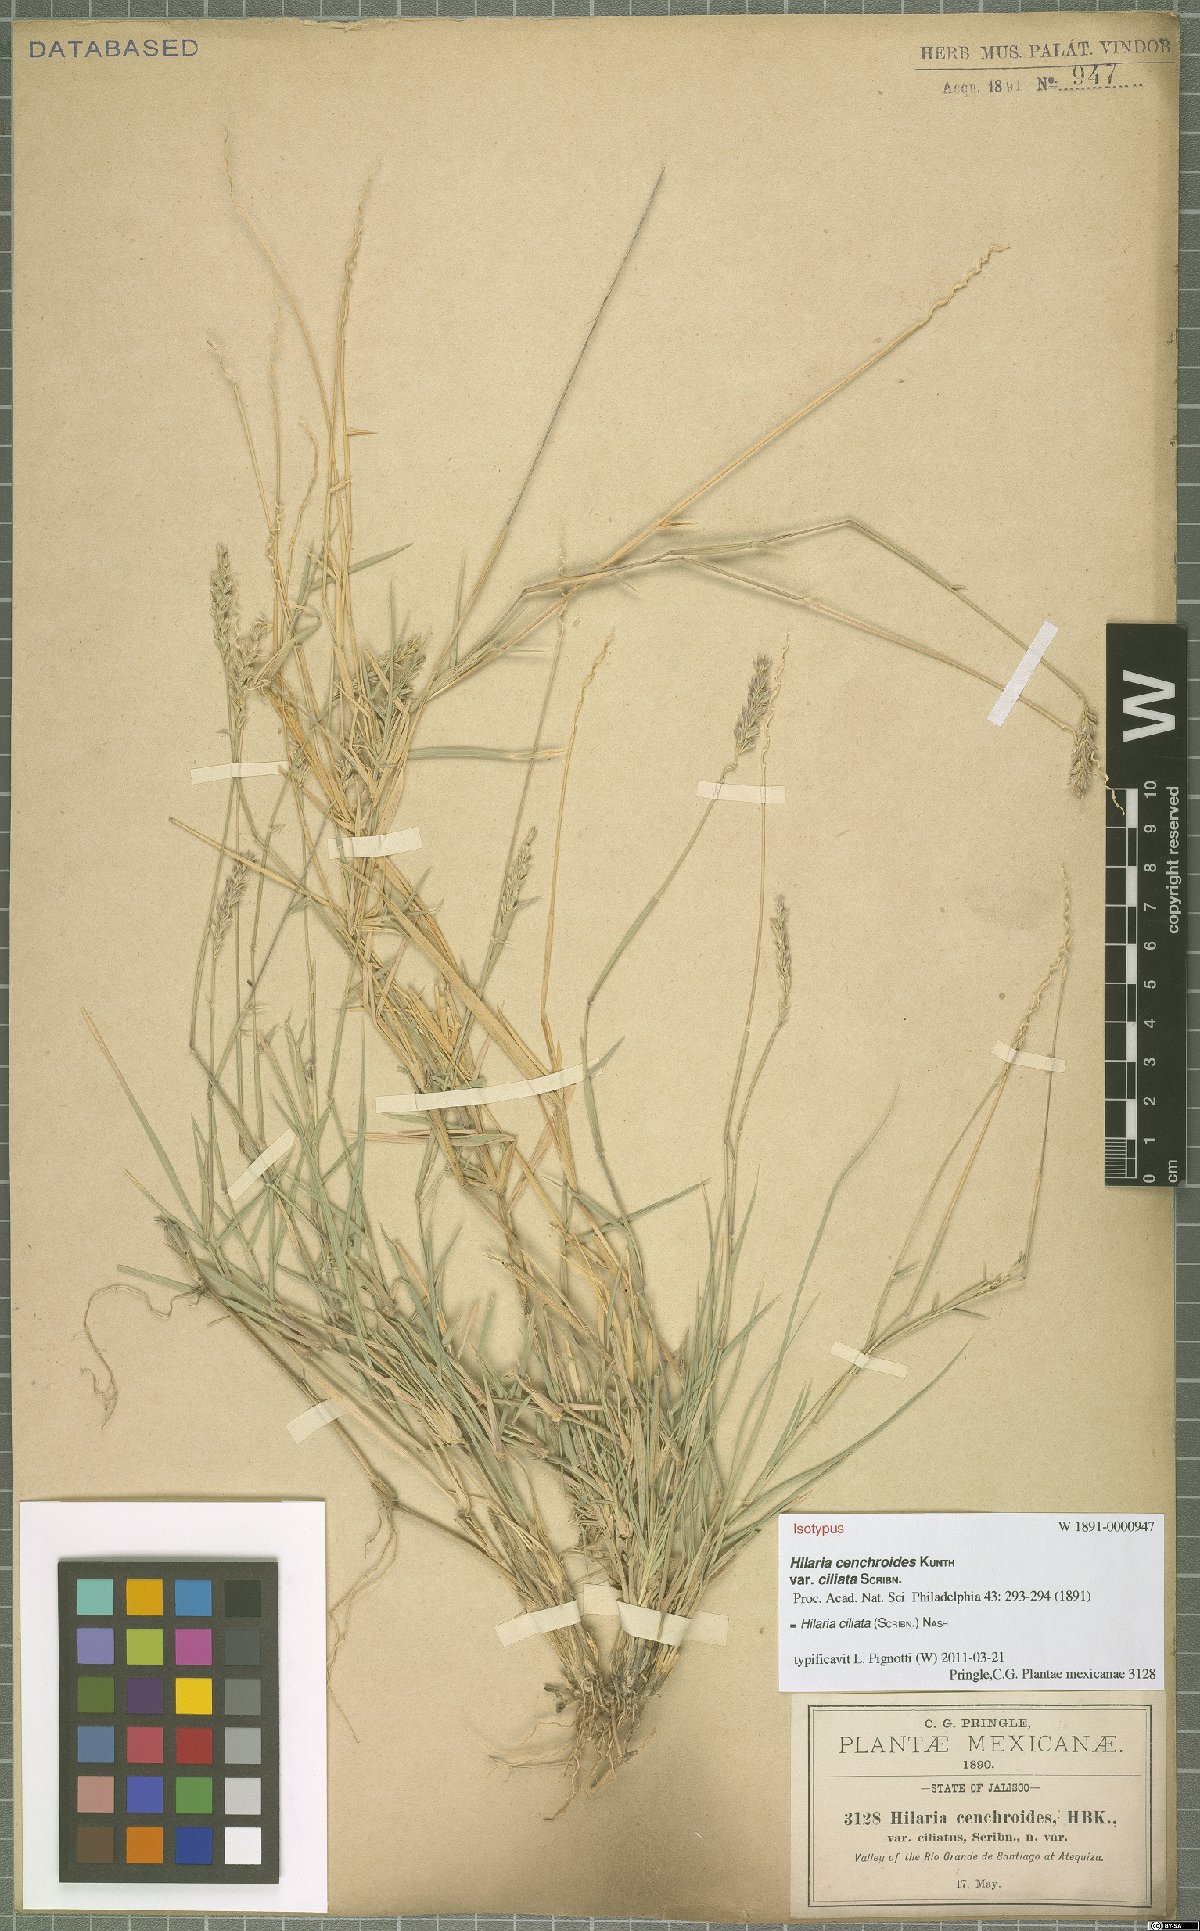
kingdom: Plantae
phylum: Tracheophyta
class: Liliopsida
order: Poales
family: Poaceae
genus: Hilaria
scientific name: Hilaria ciliata
